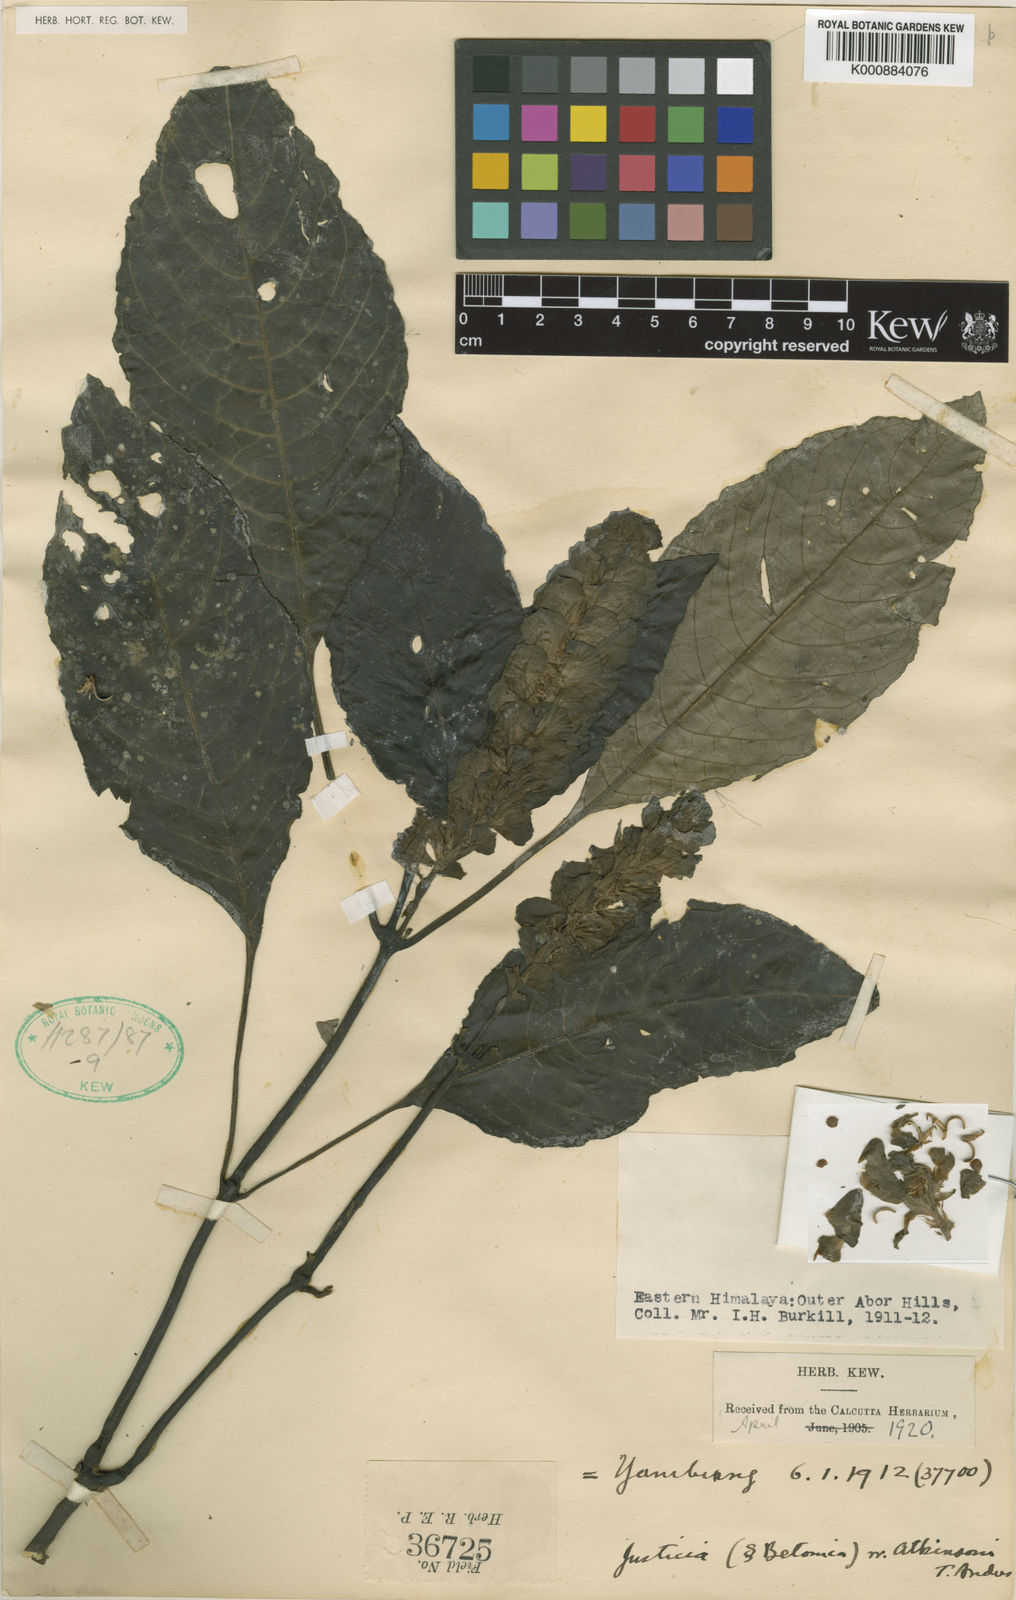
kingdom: Plantae
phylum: Tracheophyta
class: Magnoliopsida
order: Lamiales
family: Acanthaceae
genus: Rungia
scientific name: Rungia burmanica
